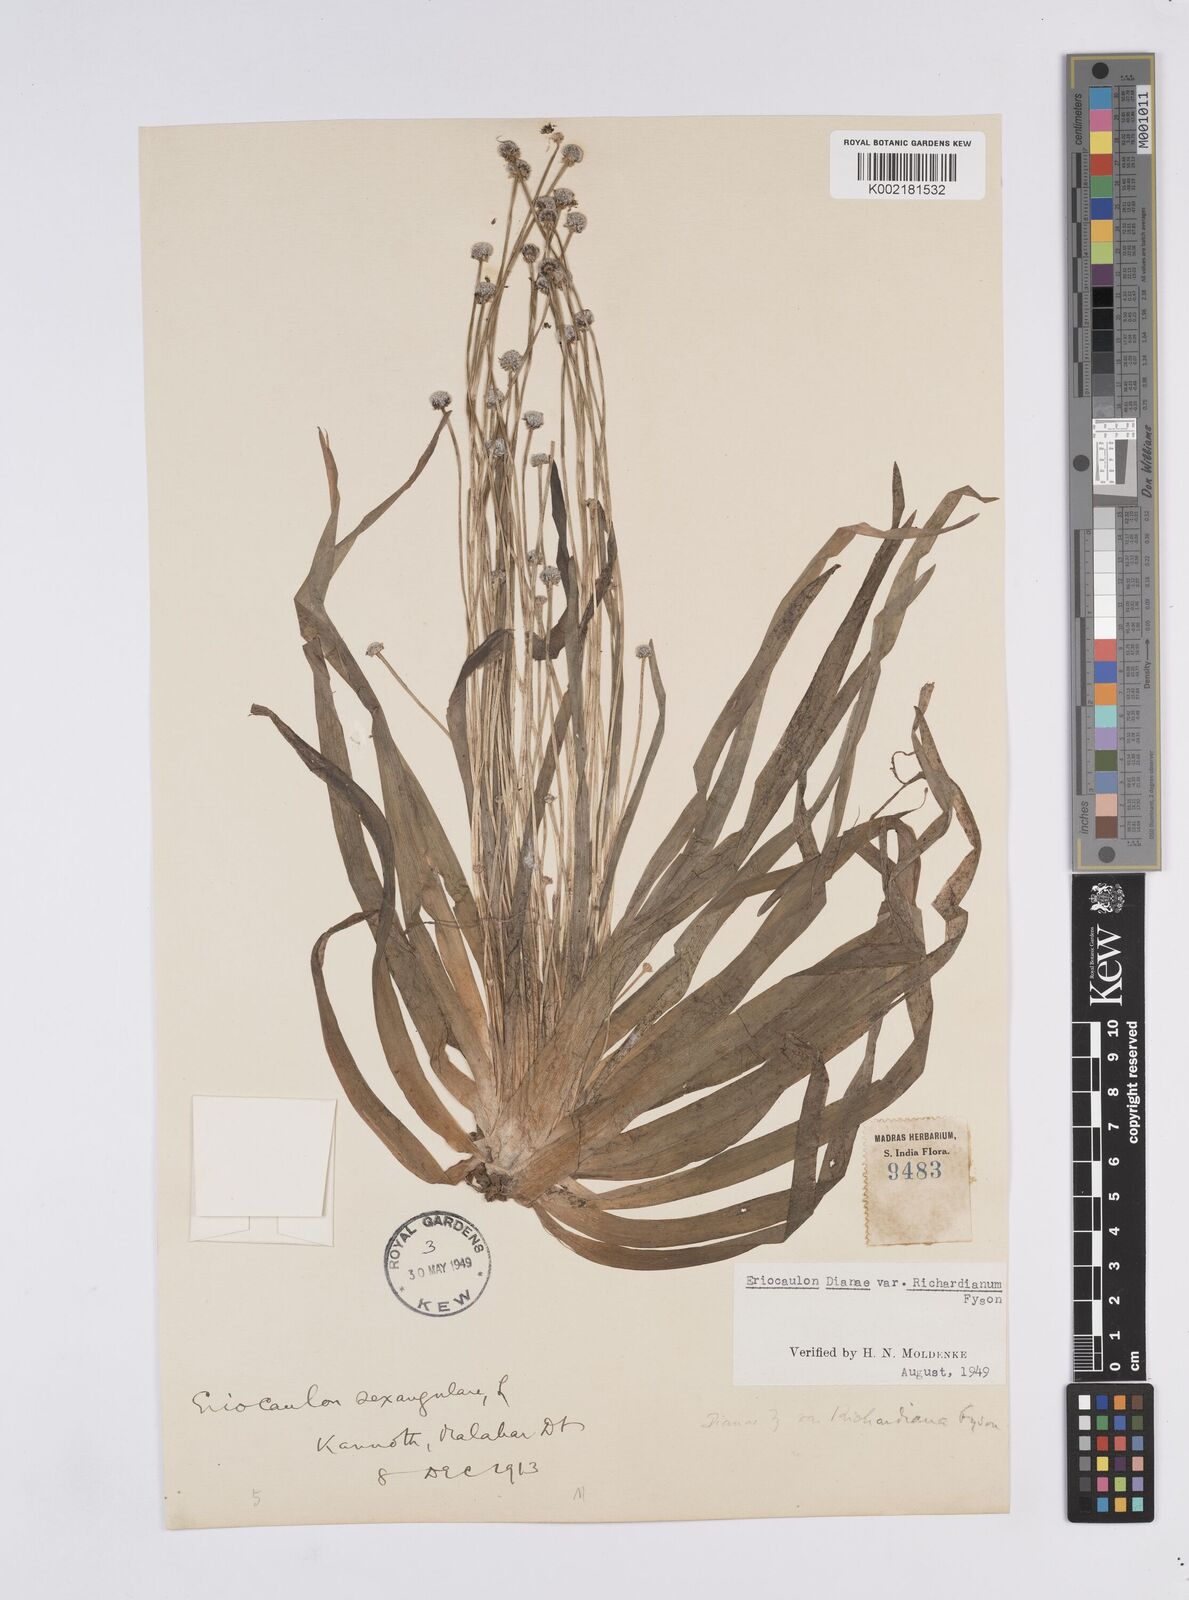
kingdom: Plantae
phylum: Tracheophyta
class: Liliopsida
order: Poales
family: Eriocaulaceae
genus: Eriocaulon
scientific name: Eriocaulon heterolepis
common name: Buttonhead pipewort
